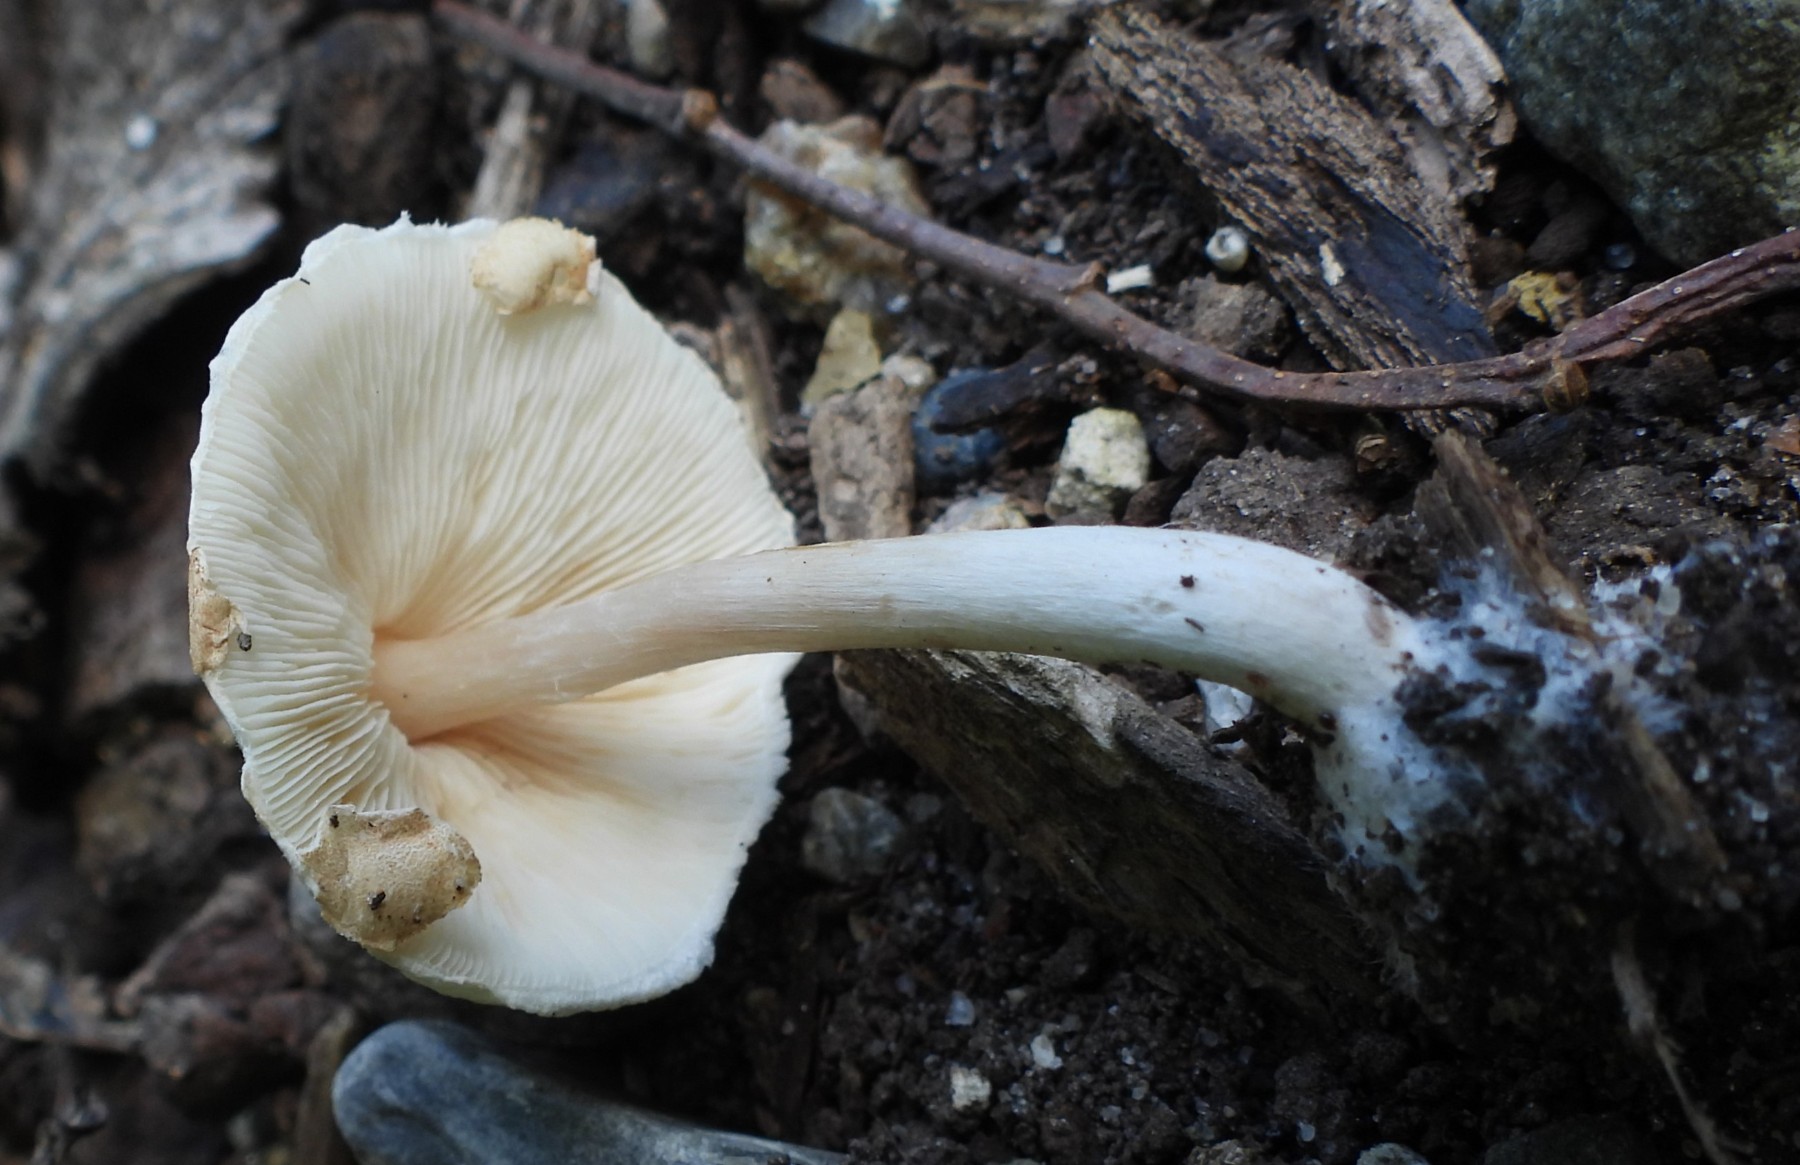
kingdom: Fungi
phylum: Basidiomycota
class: Agaricomycetes
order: Agaricales
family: Agaricaceae
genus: Lepiota
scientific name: Lepiota cristata
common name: stinkende parasolhat
